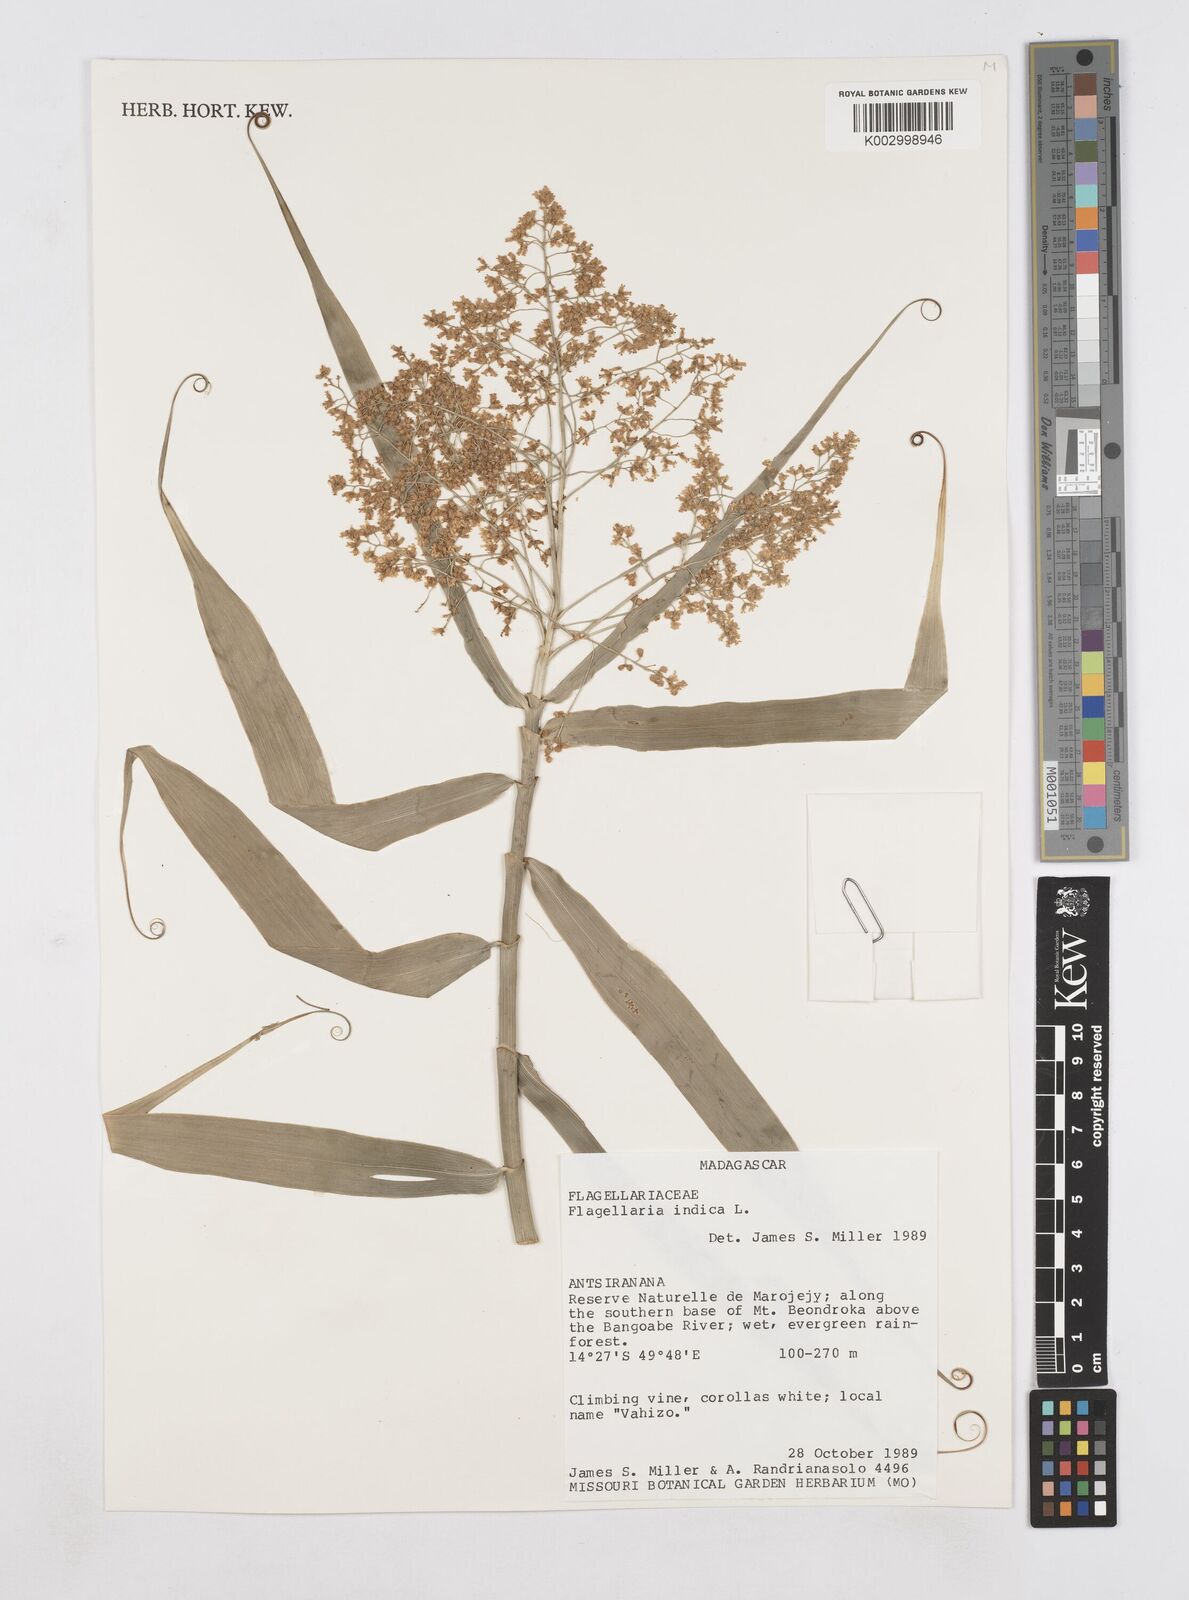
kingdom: Plantae
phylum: Tracheophyta
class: Liliopsida
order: Poales
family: Flagellariaceae
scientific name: Flagellariaceae
